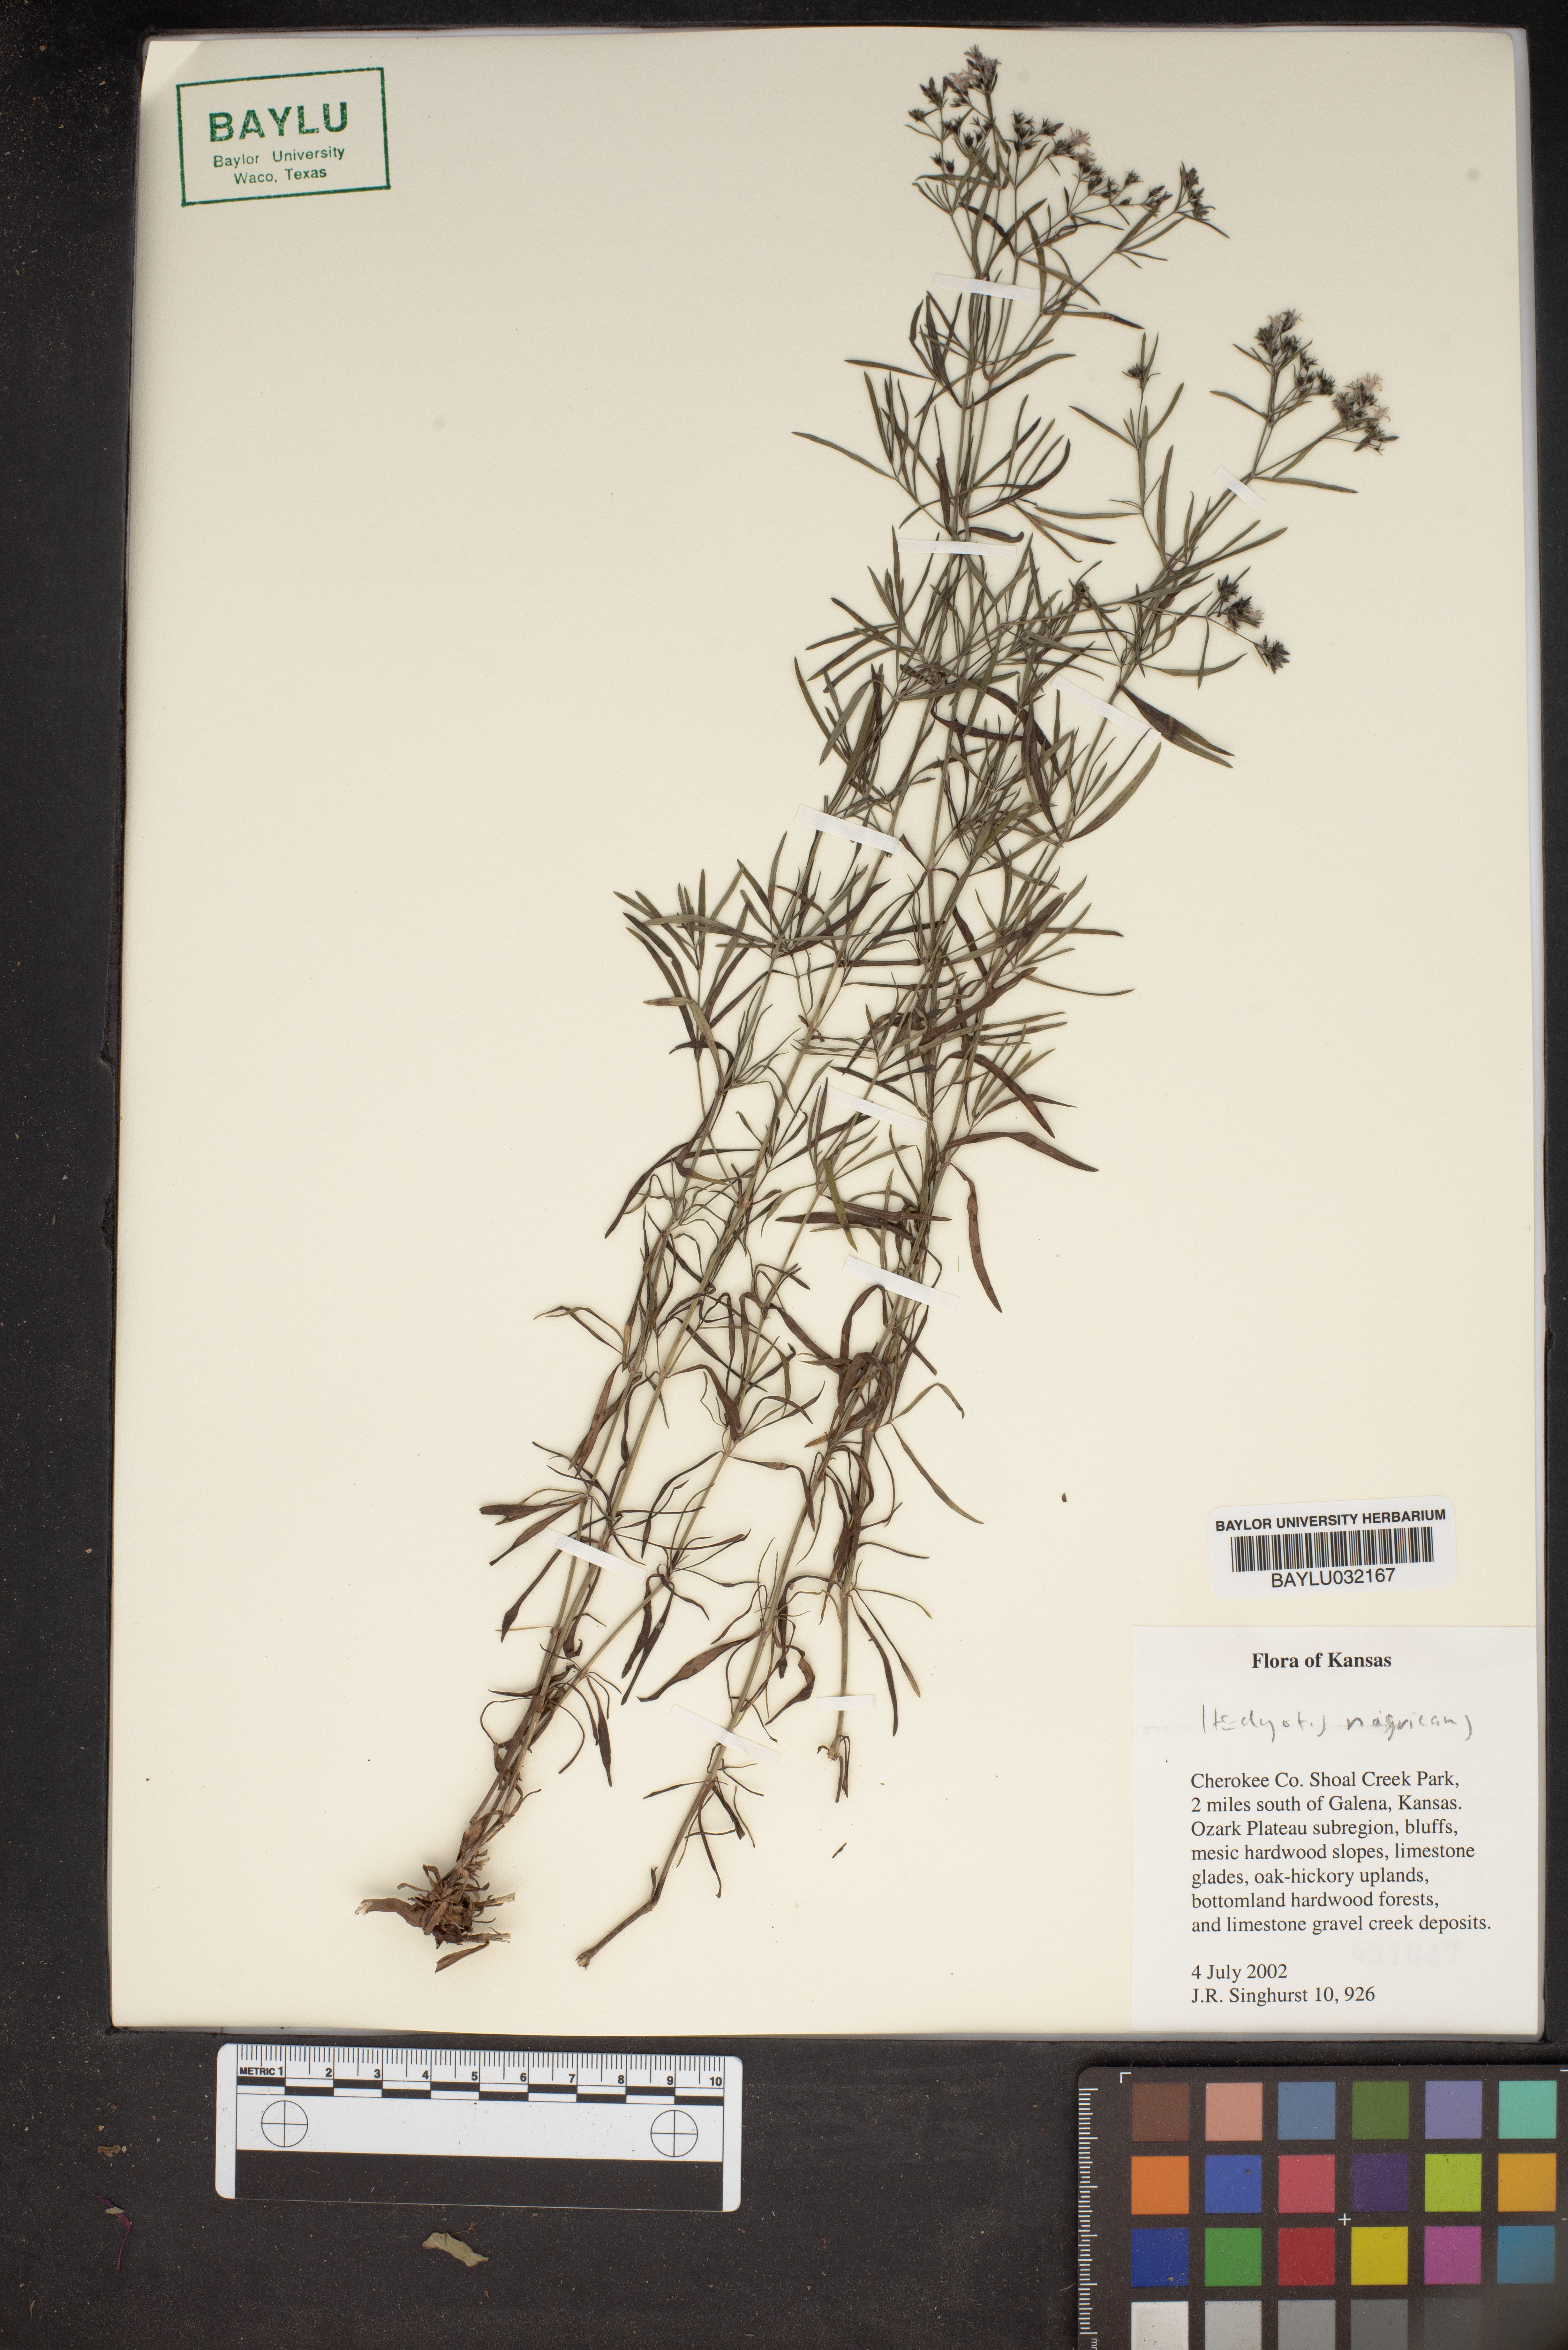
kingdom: Plantae
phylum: Tracheophyta
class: Magnoliopsida
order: Gentianales
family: Rubiaceae
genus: Stenaria
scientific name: Stenaria nigricans
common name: Diamondflowers
